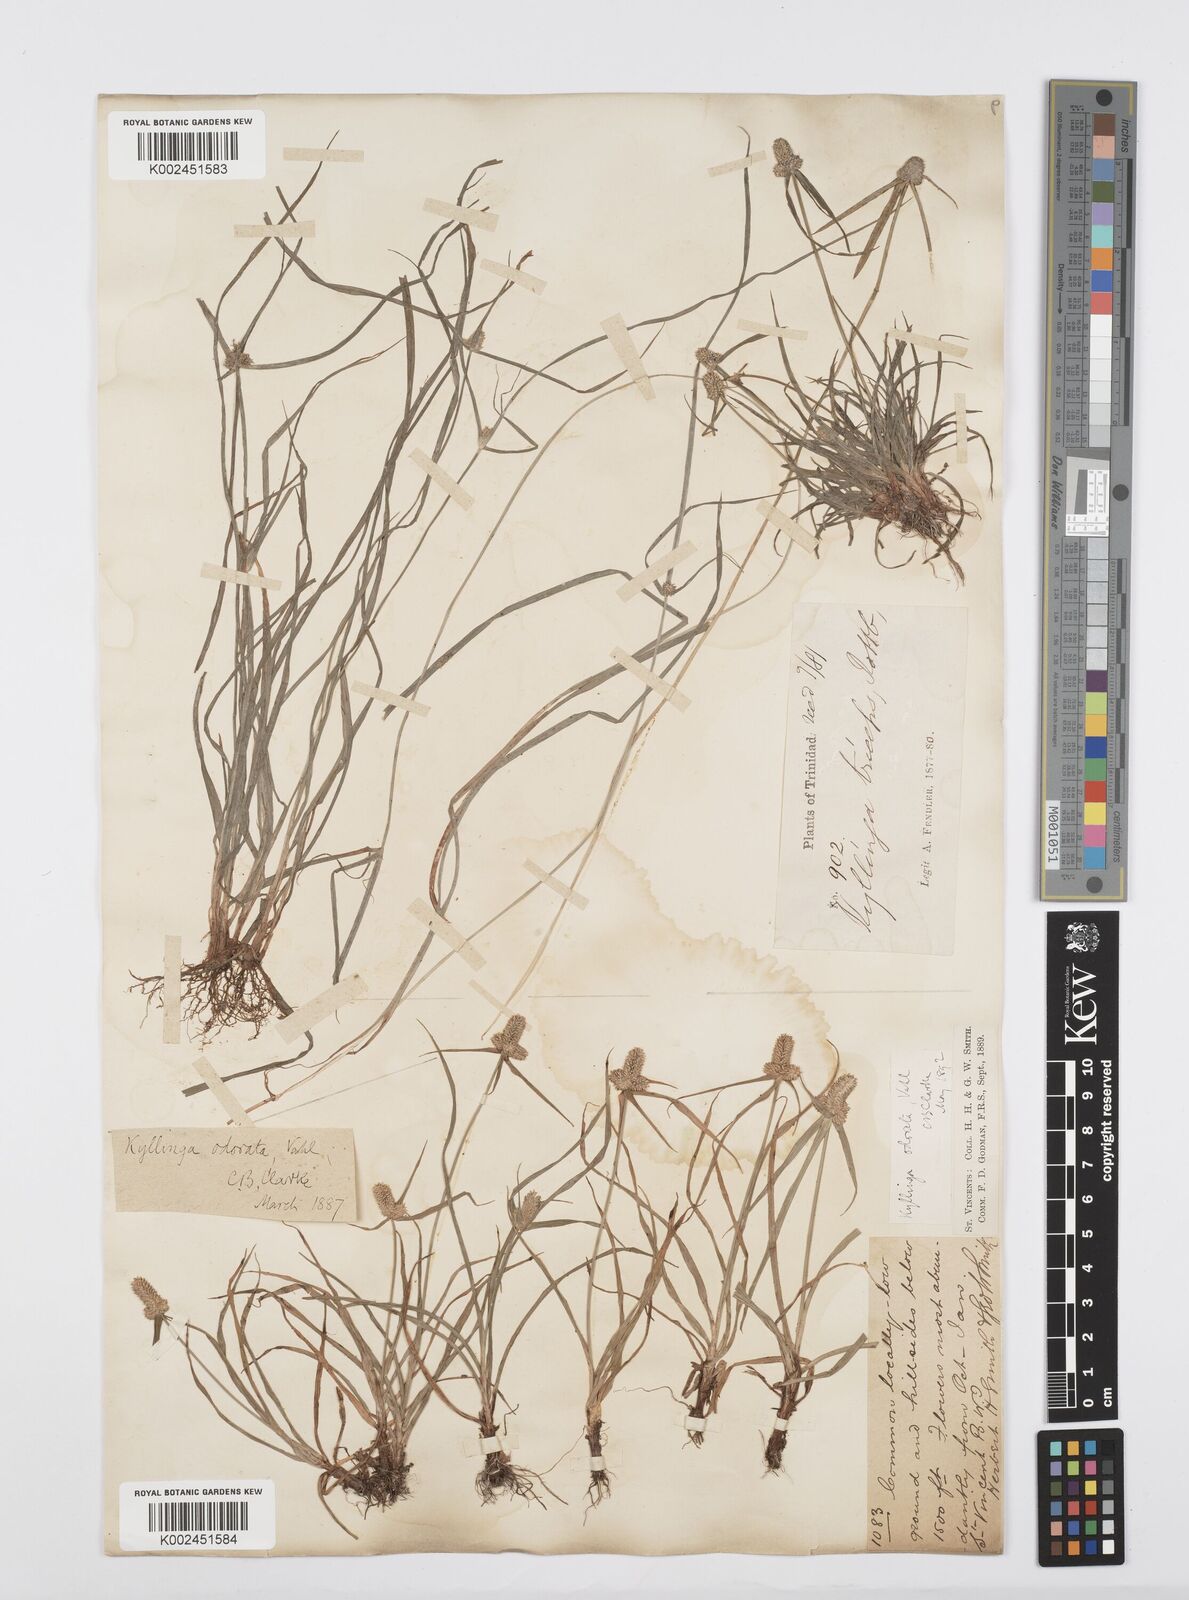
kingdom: Plantae
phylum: Tracheophyta
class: Liliopsida
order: Poales
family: Cyperaceae
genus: Cyperus
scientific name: Cyperus
